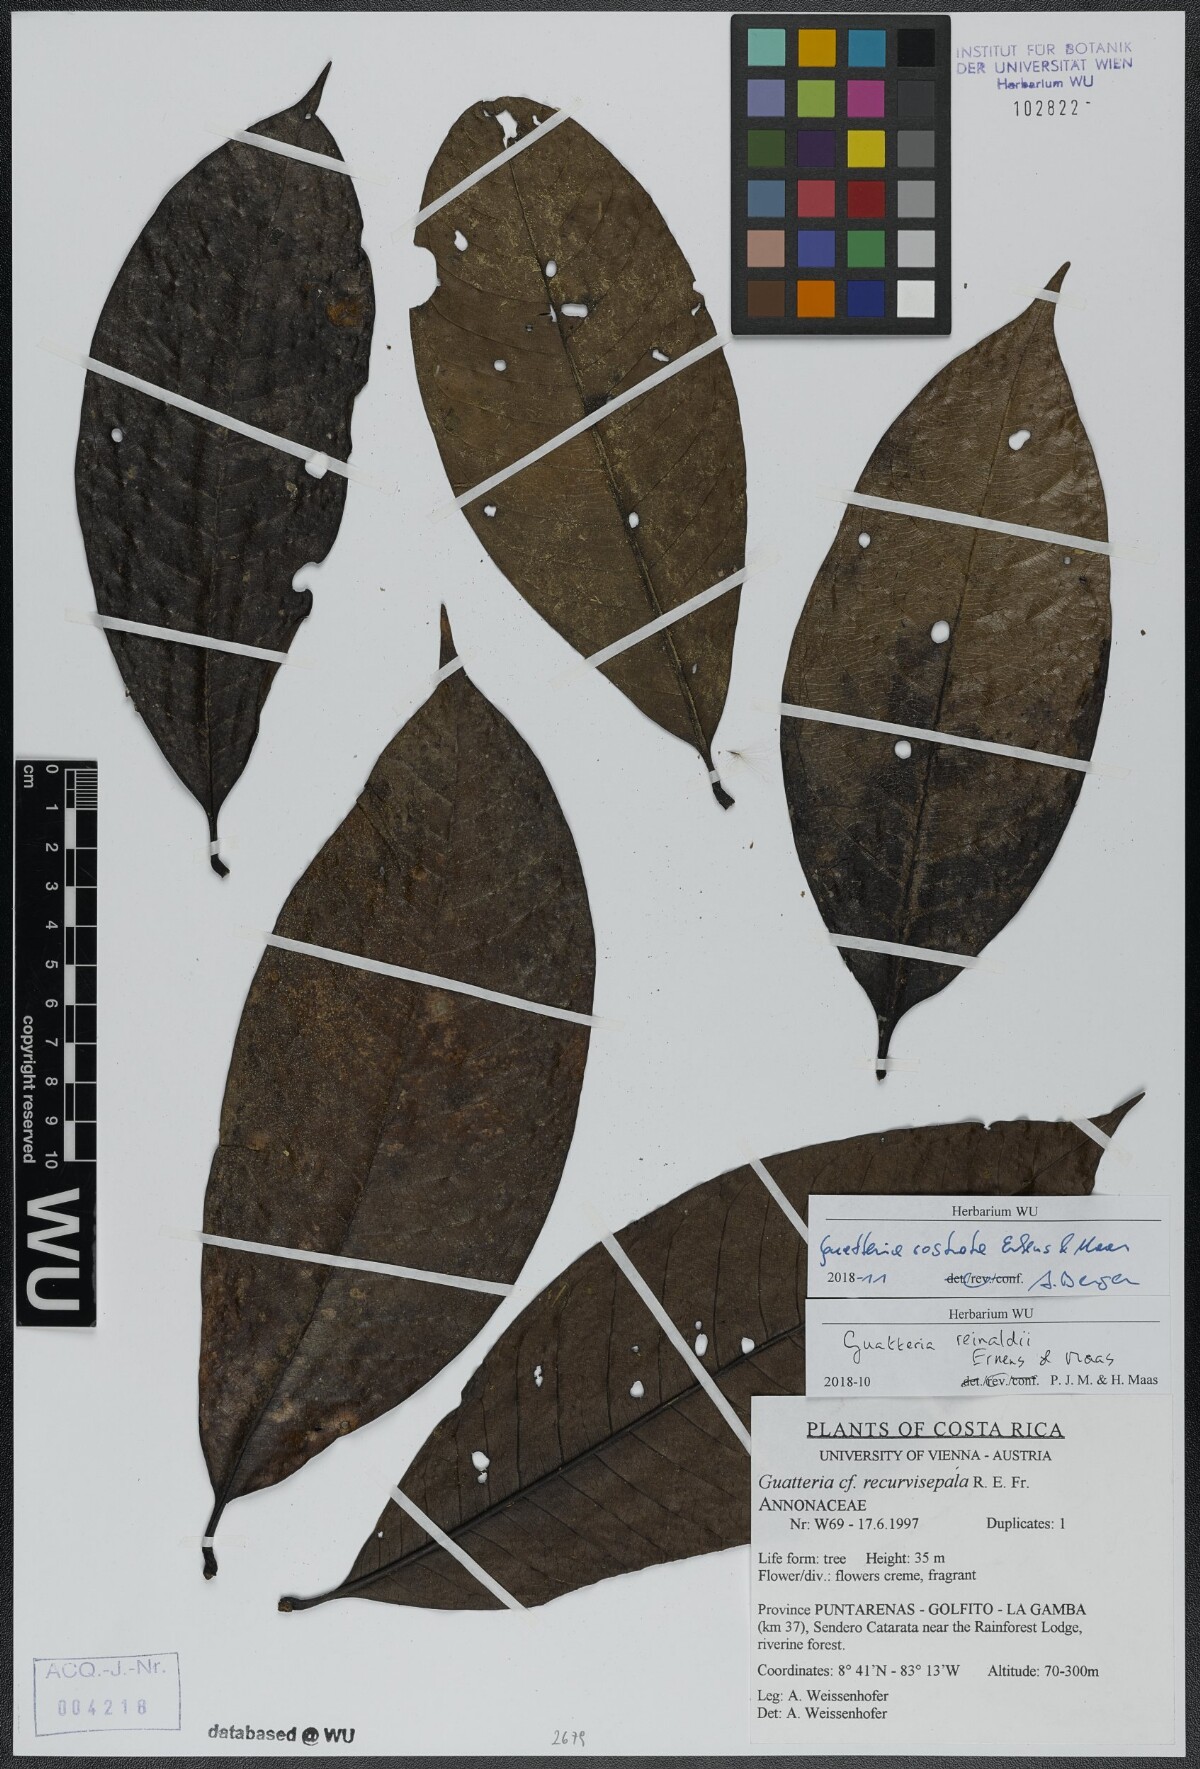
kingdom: Plantae
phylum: Tracheophyta
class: Magnoliopsida
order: Magnoliales
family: Annonaceae
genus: Guatteria
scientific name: Guatteria reinaldii
